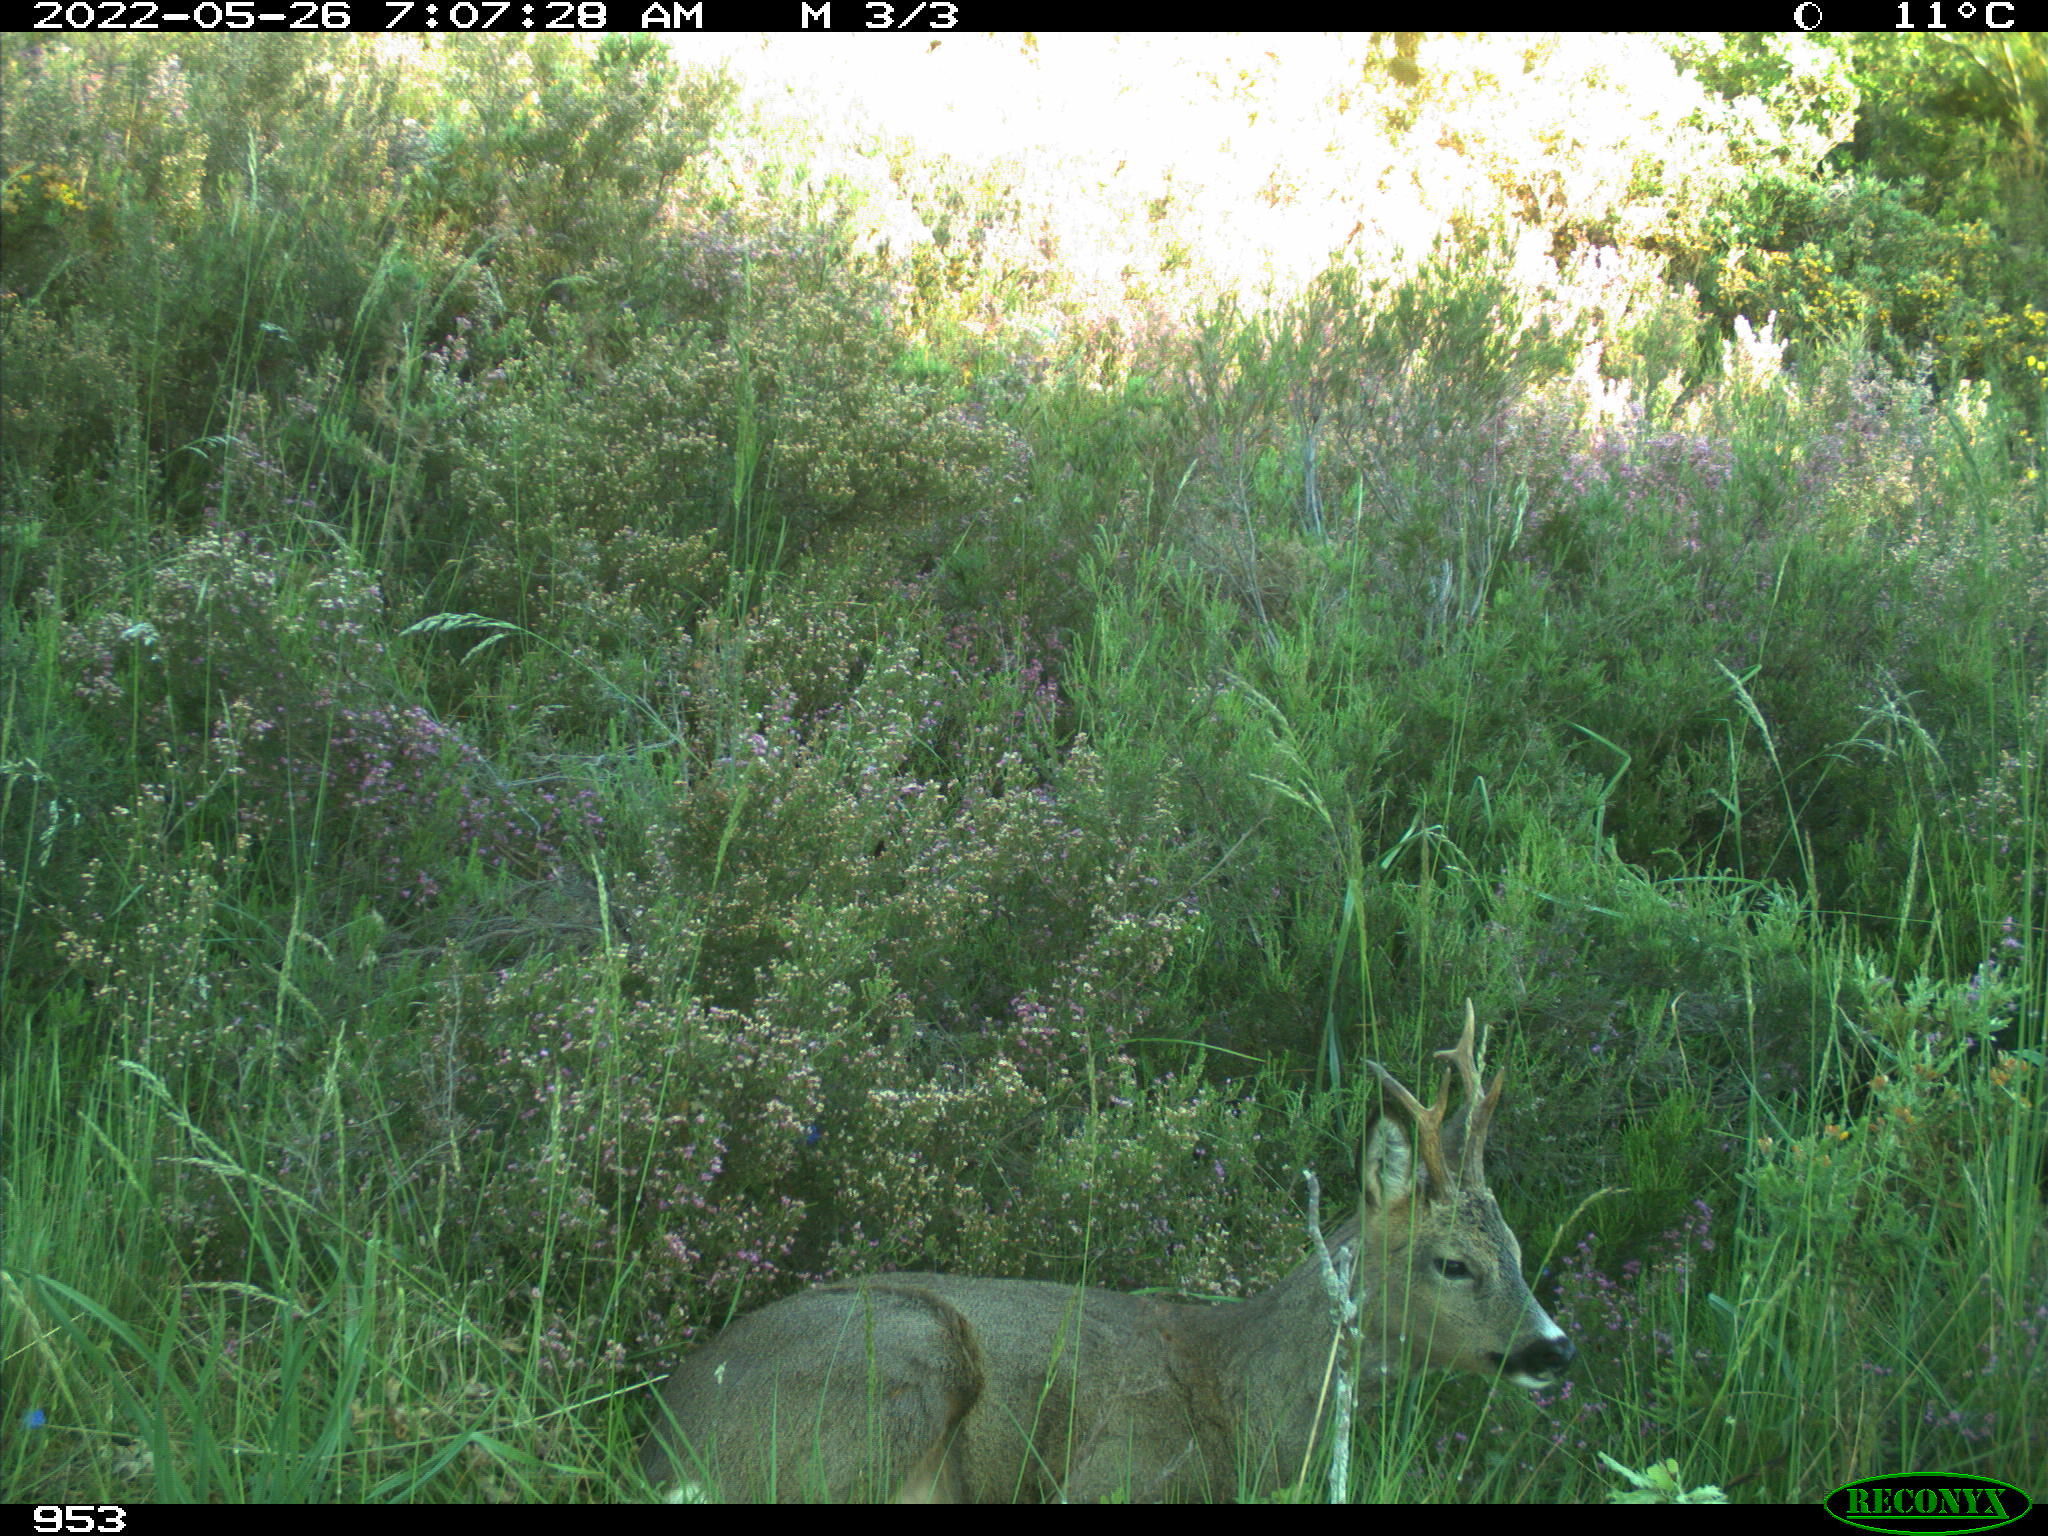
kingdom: Animalia
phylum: Chordata
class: Mammalia
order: Artiodactyla
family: Cervidae
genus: Capreolus
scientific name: Capreolus capreolus
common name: Western roe deer
